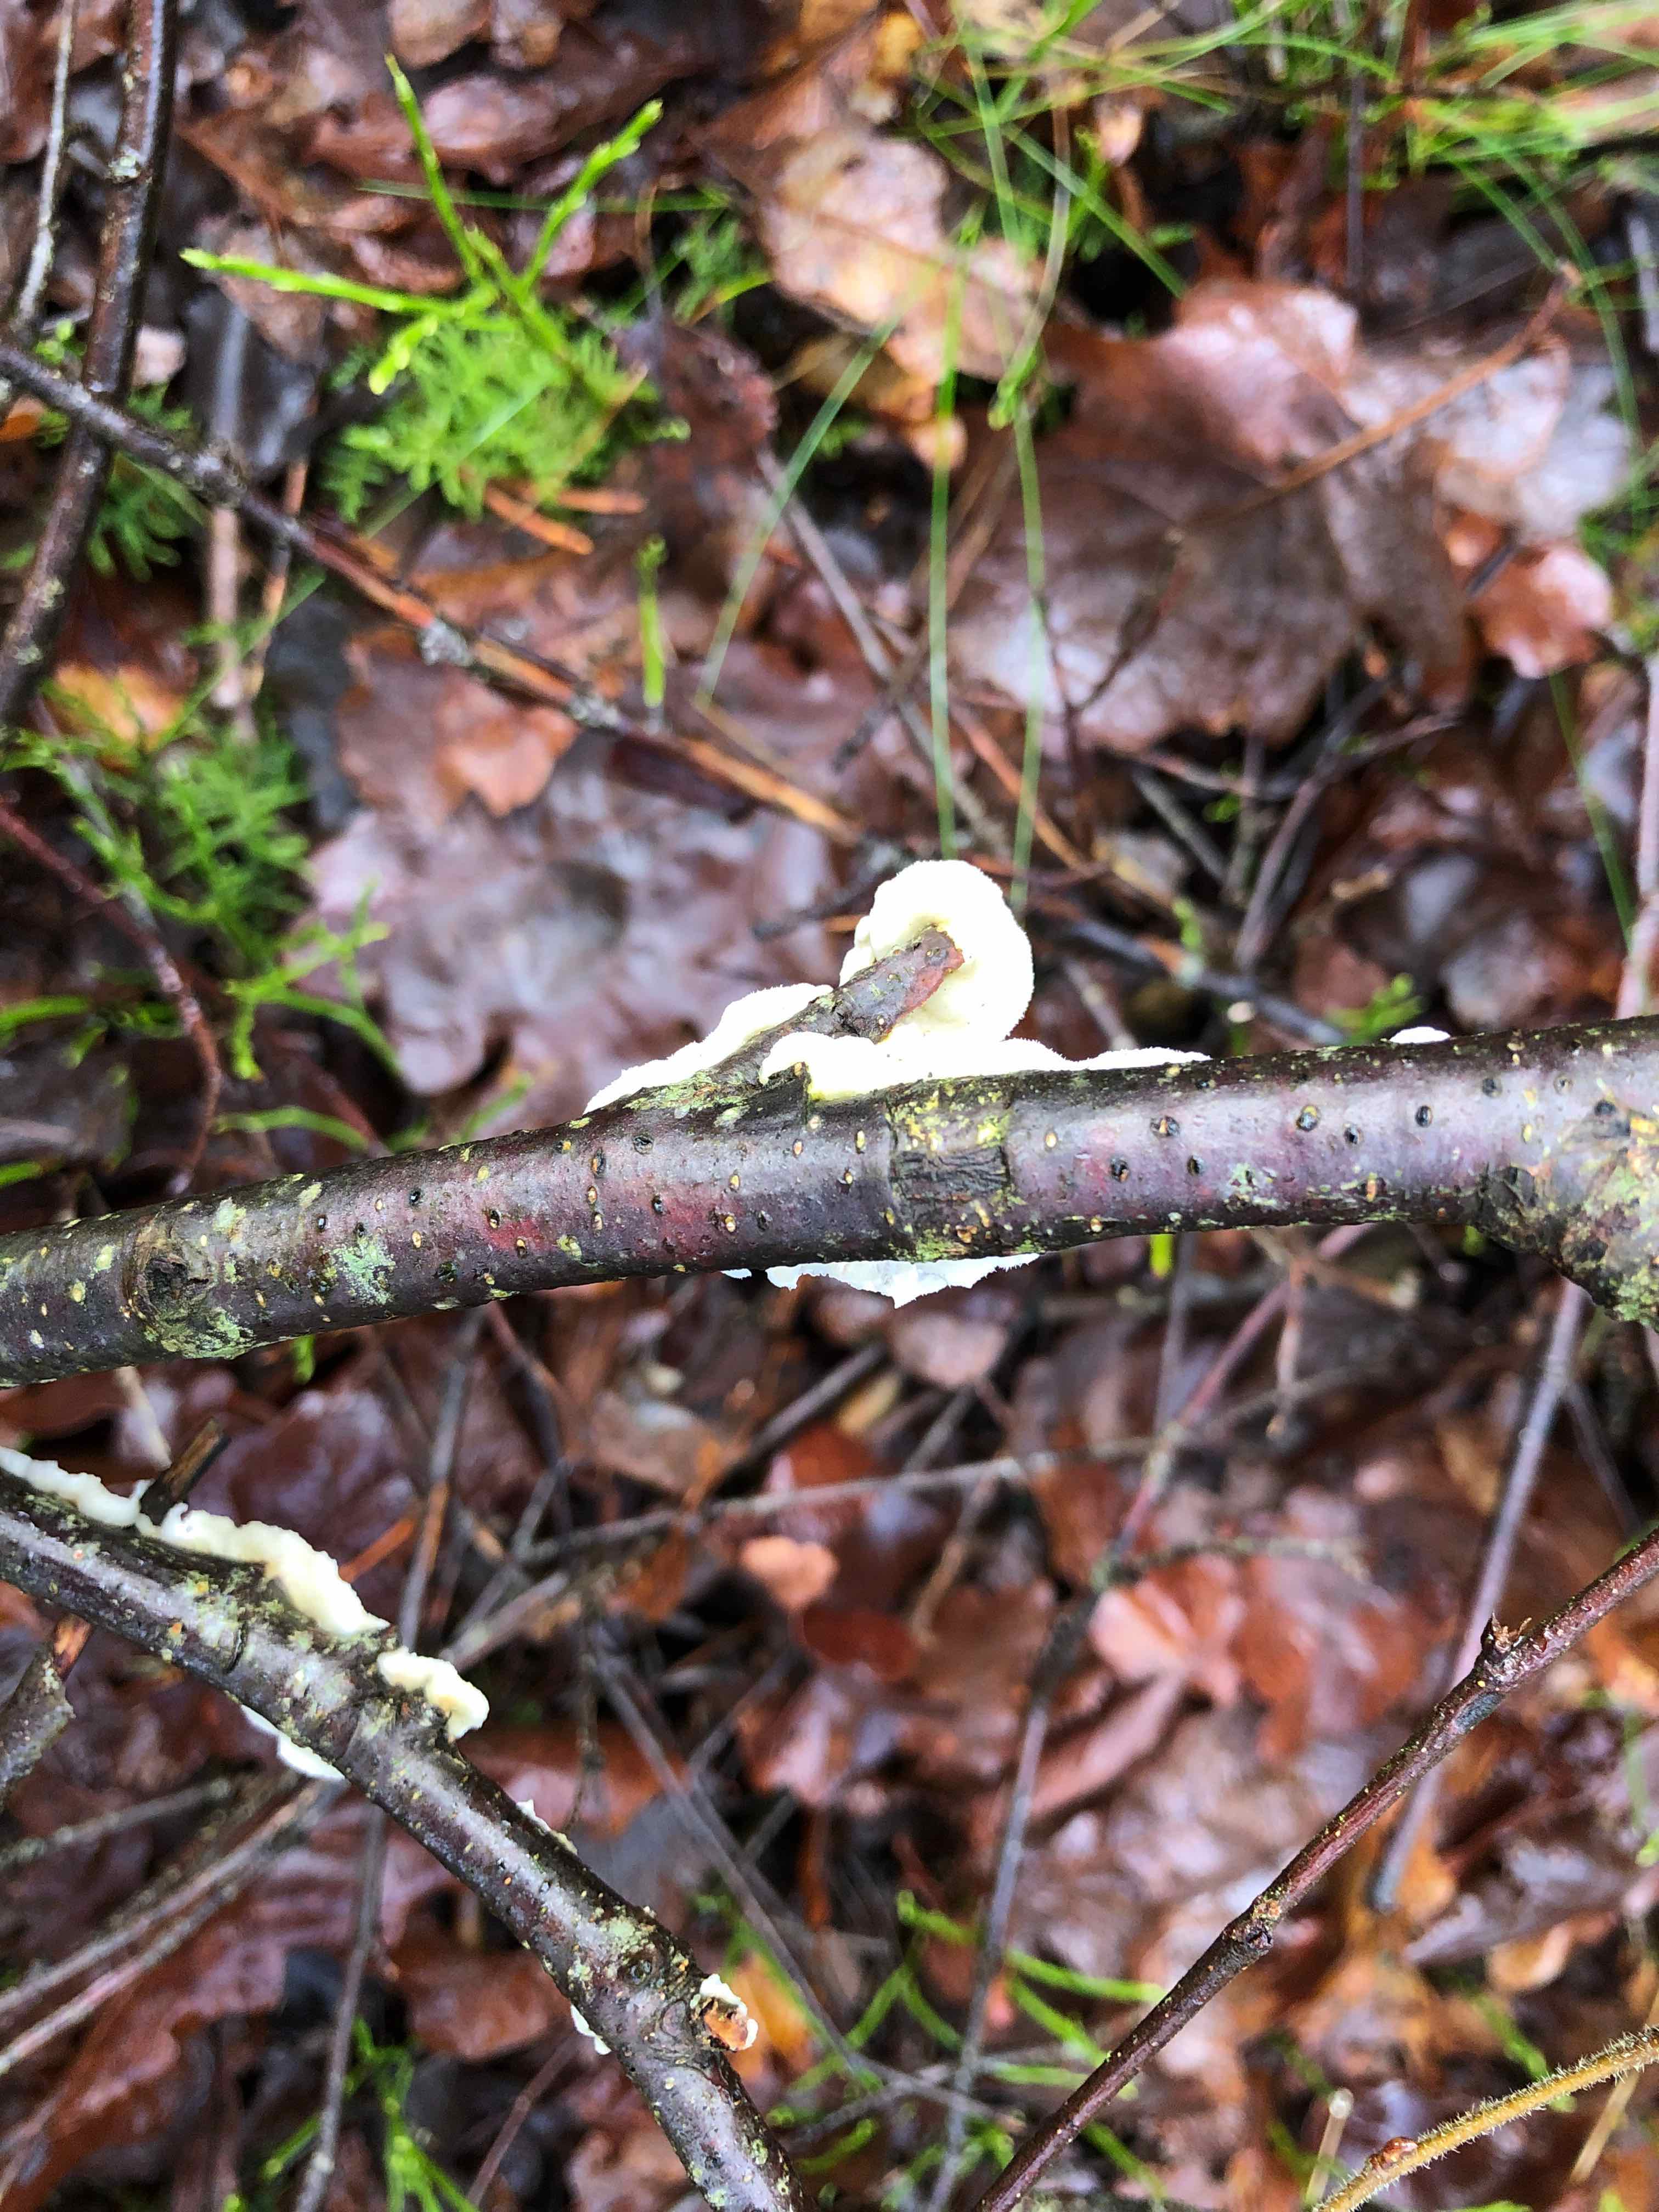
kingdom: Fungi
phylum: Basidiomycota
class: Agaricomycetes
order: Polyporales
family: Irpicaceae
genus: Byssomerulius
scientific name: Byssomerulius corium
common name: læder-åresvamp
